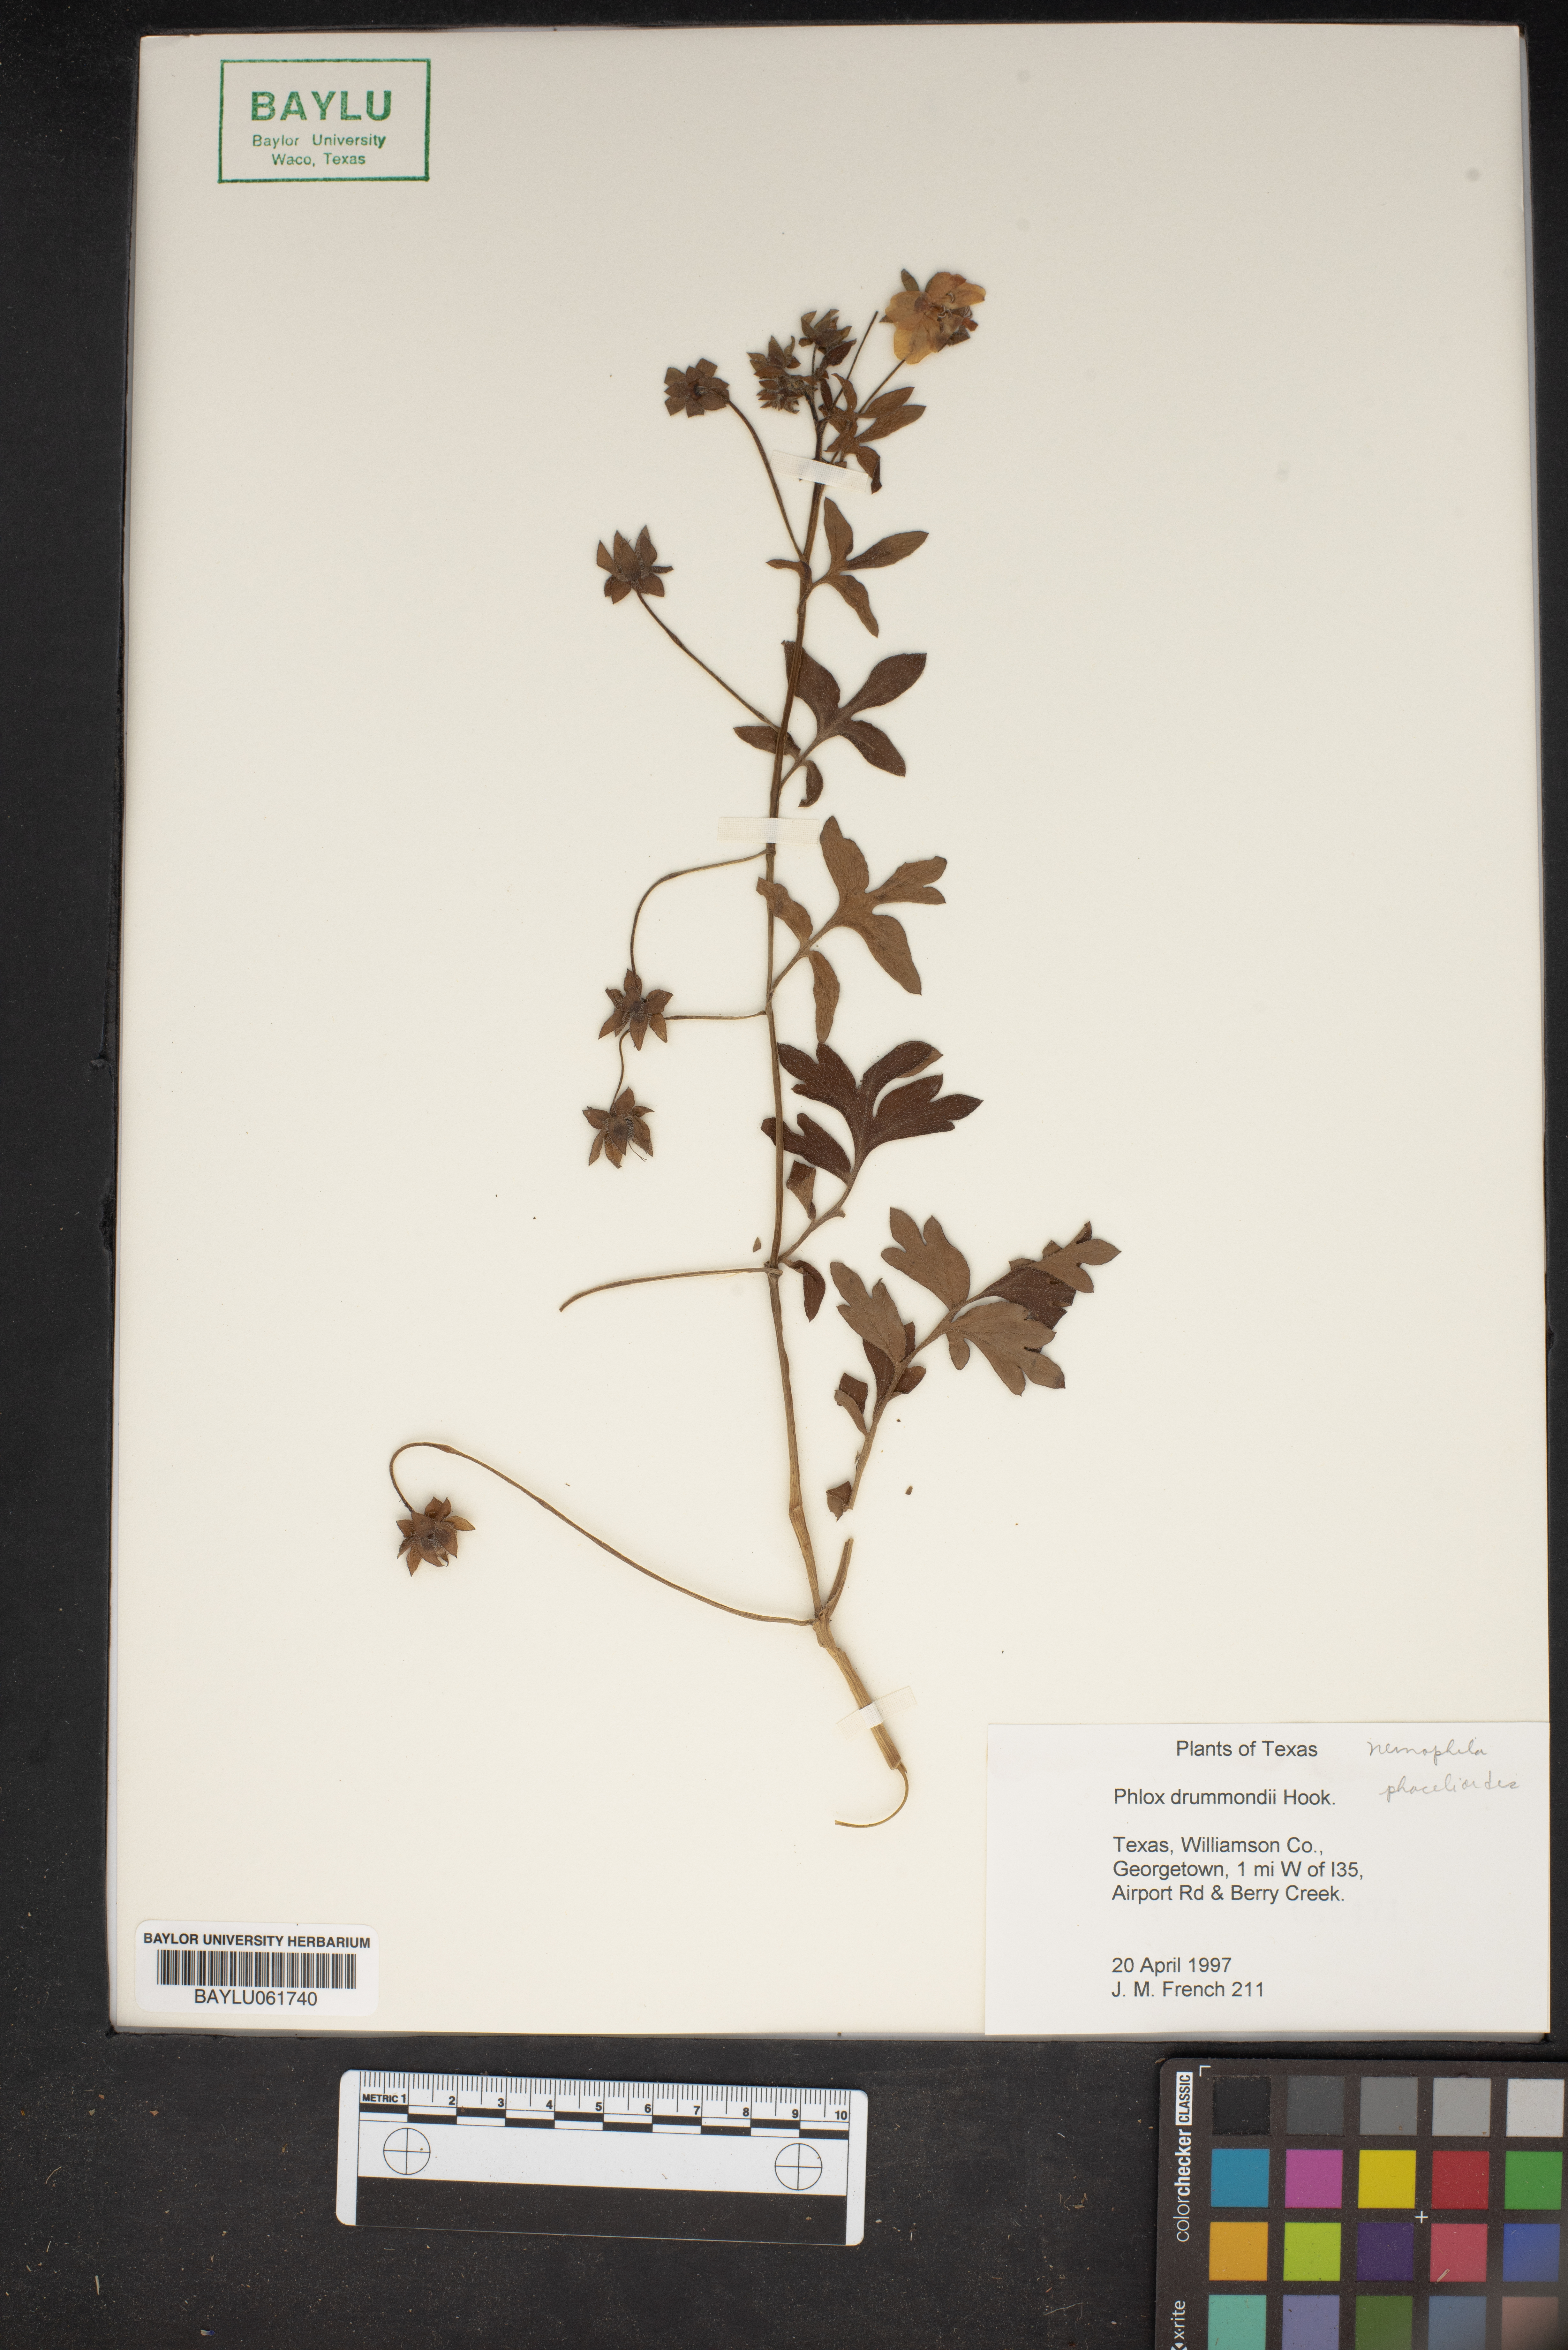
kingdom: Plantae
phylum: Tracheophyta
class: Magnoliopsida
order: Ericales
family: Polemoniaceae
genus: Phlox
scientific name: Phlox drummondii
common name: Drummond's phlox
